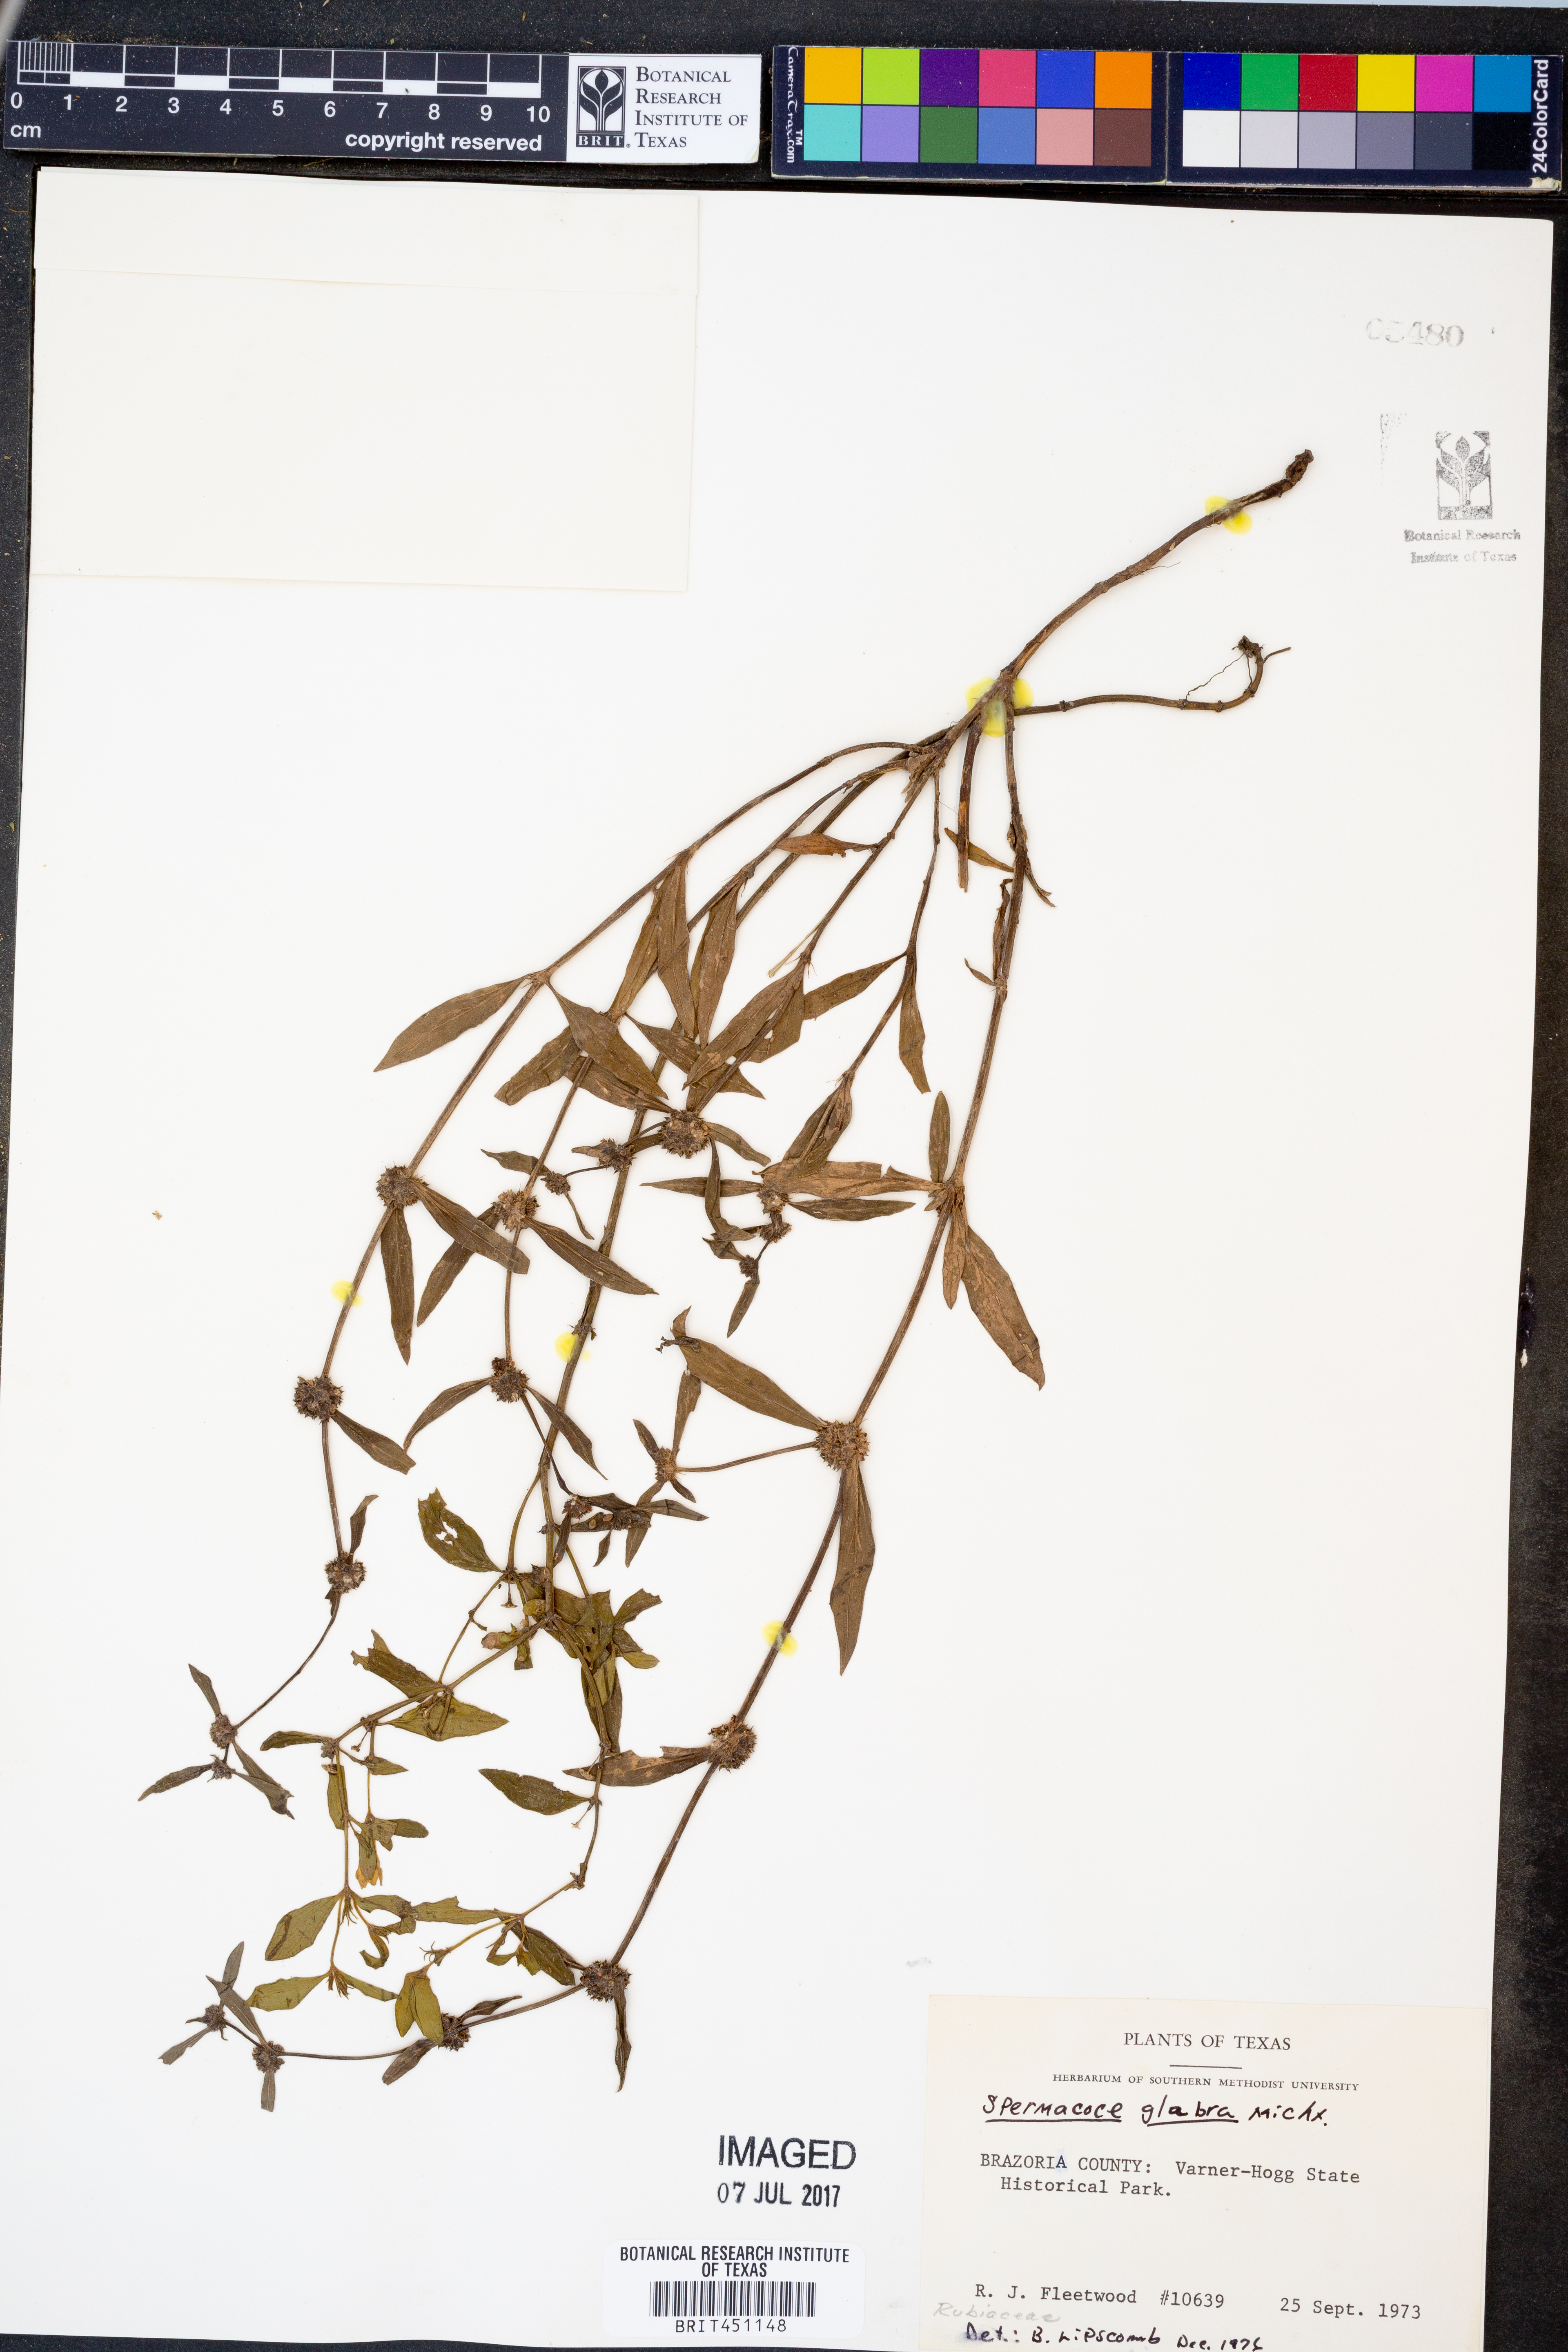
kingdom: Plantae
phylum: Tracheophyta
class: Magnoliopsida
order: Gentianales
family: Rubiaceae
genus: Spermacoce
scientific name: Spermacoce glabra
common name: Smooth buttonweed
